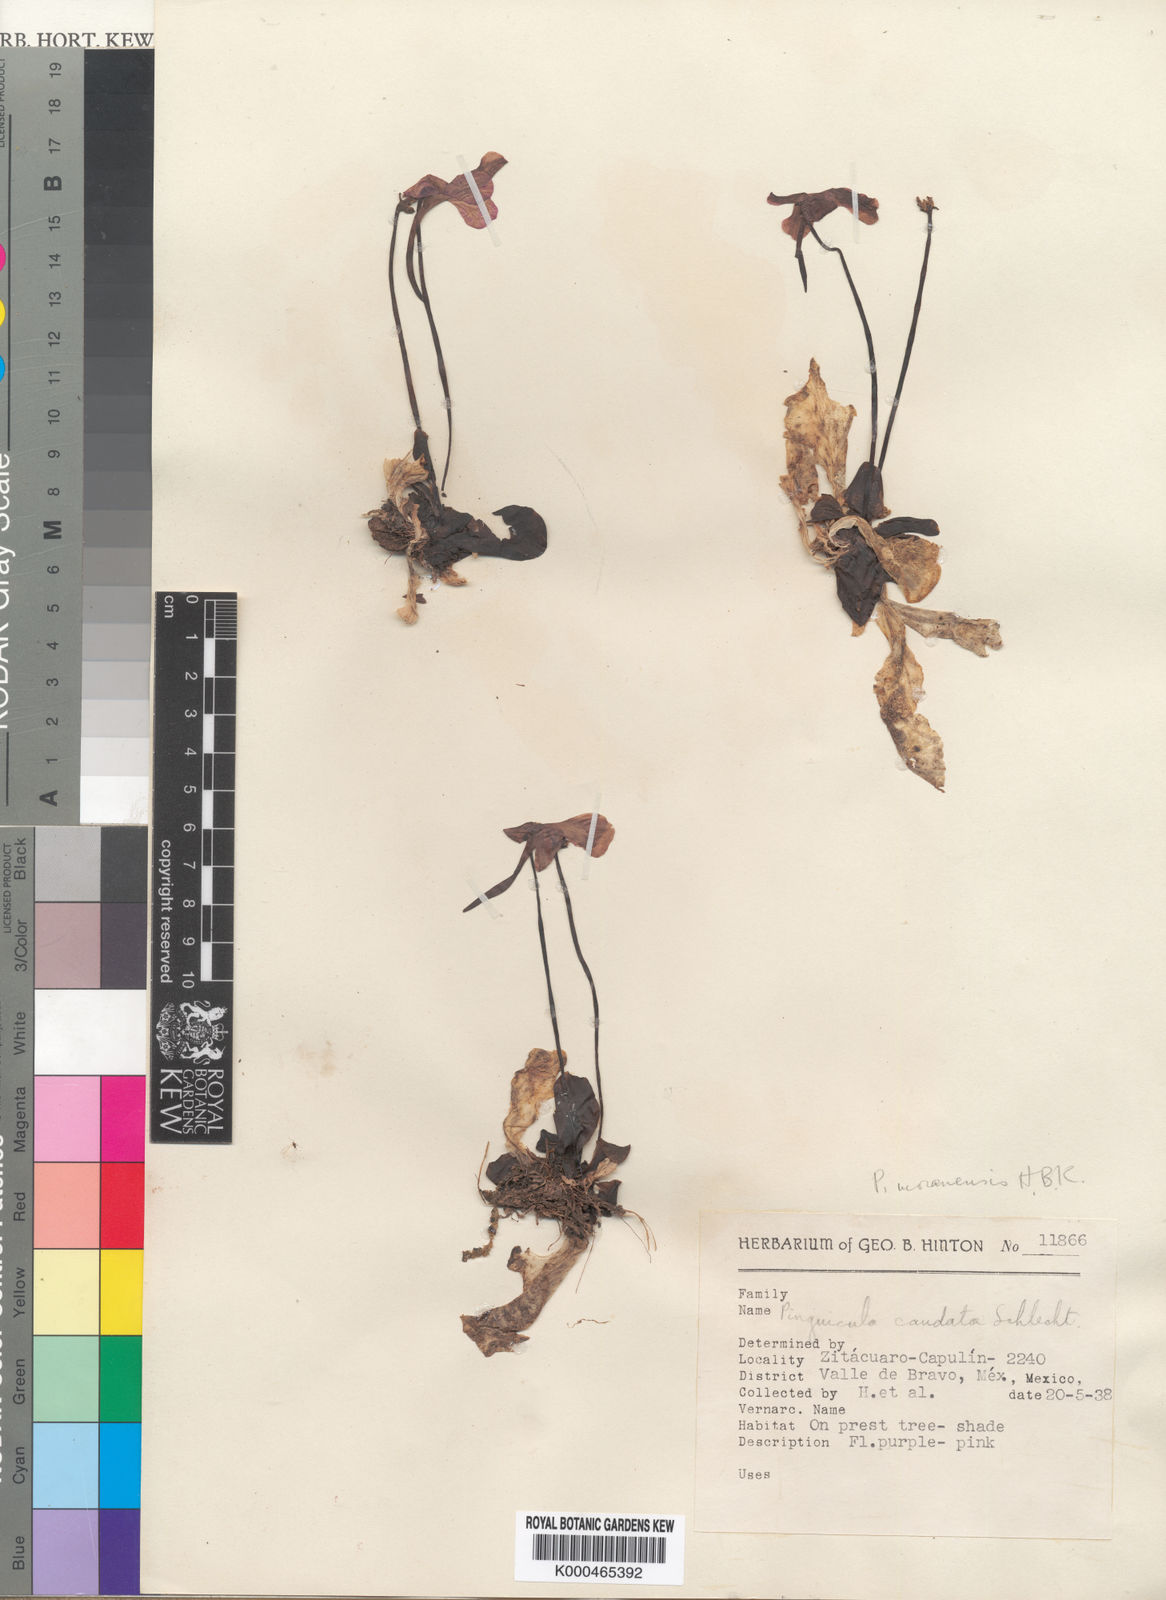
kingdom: Plantae
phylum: Tracheophyta
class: Magnoliopsida
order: Lamiales
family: Lentibulariaceae
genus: Pinguicula
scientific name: Pinguicula caudata
